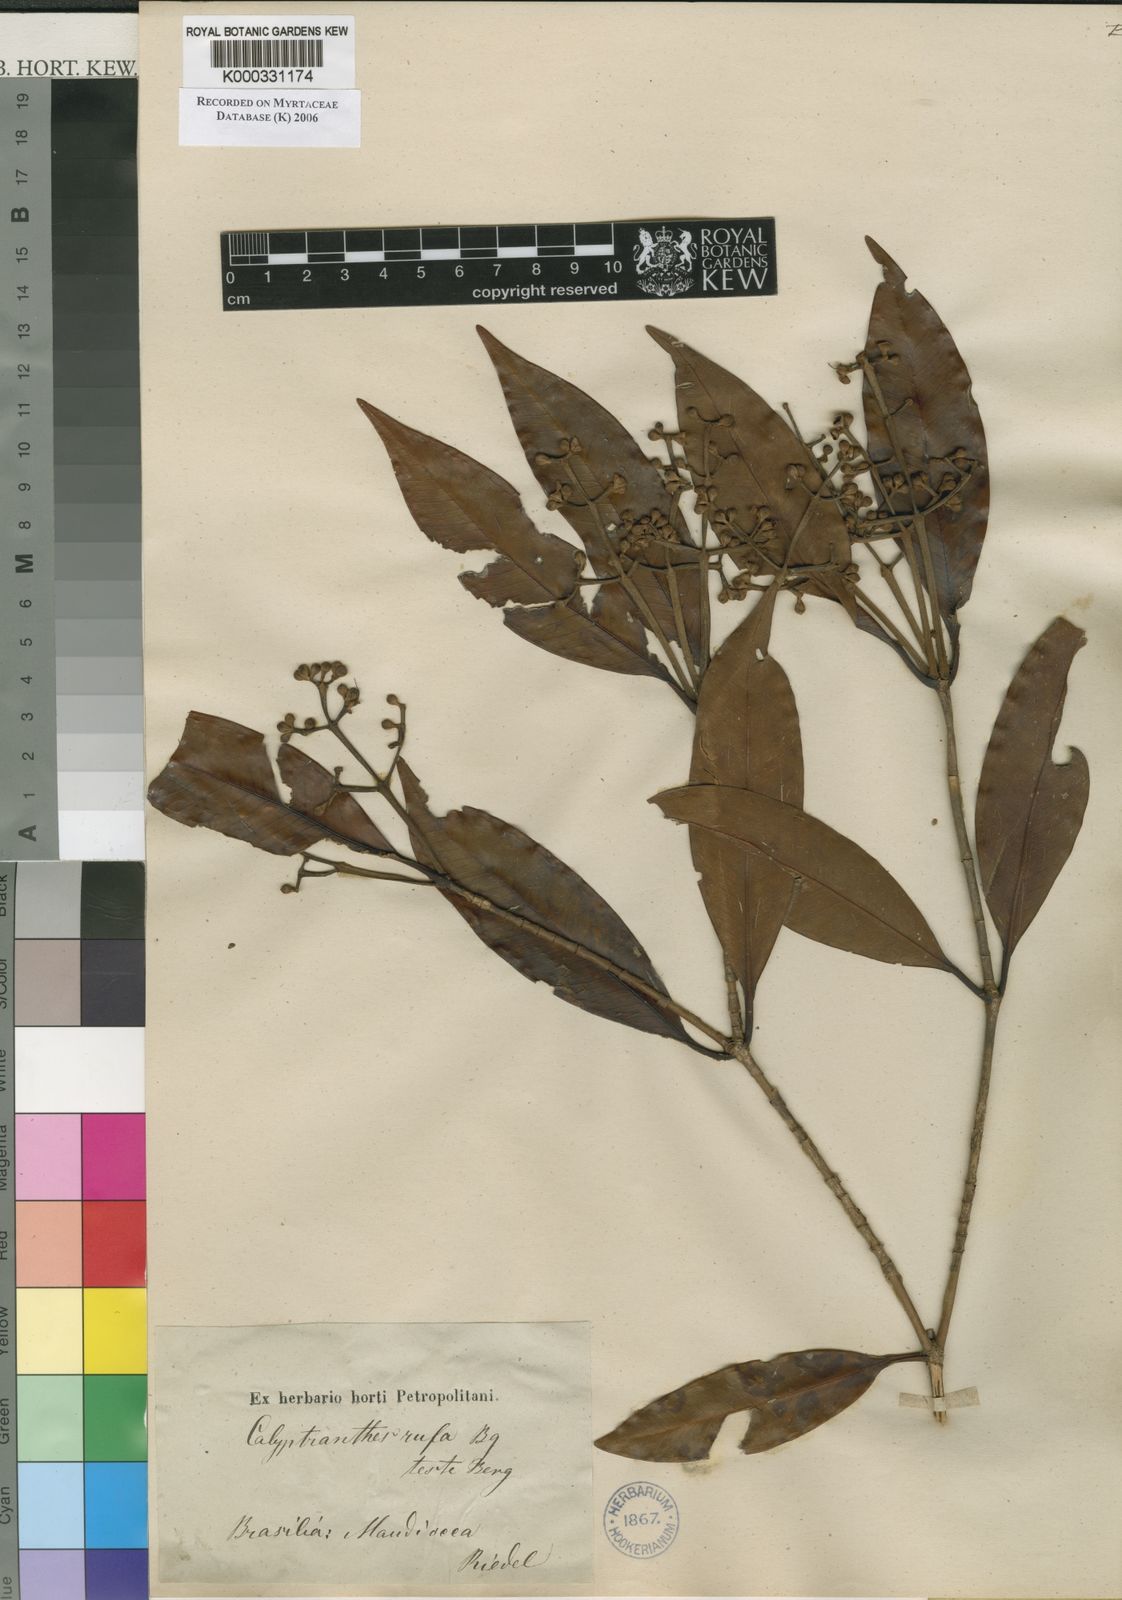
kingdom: Plantae
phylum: Tracheophyta
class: Magnoliopsida
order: Myrtales
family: Myrtaceae
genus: Calyptranthes
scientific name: Calyptranthes grandifolia
